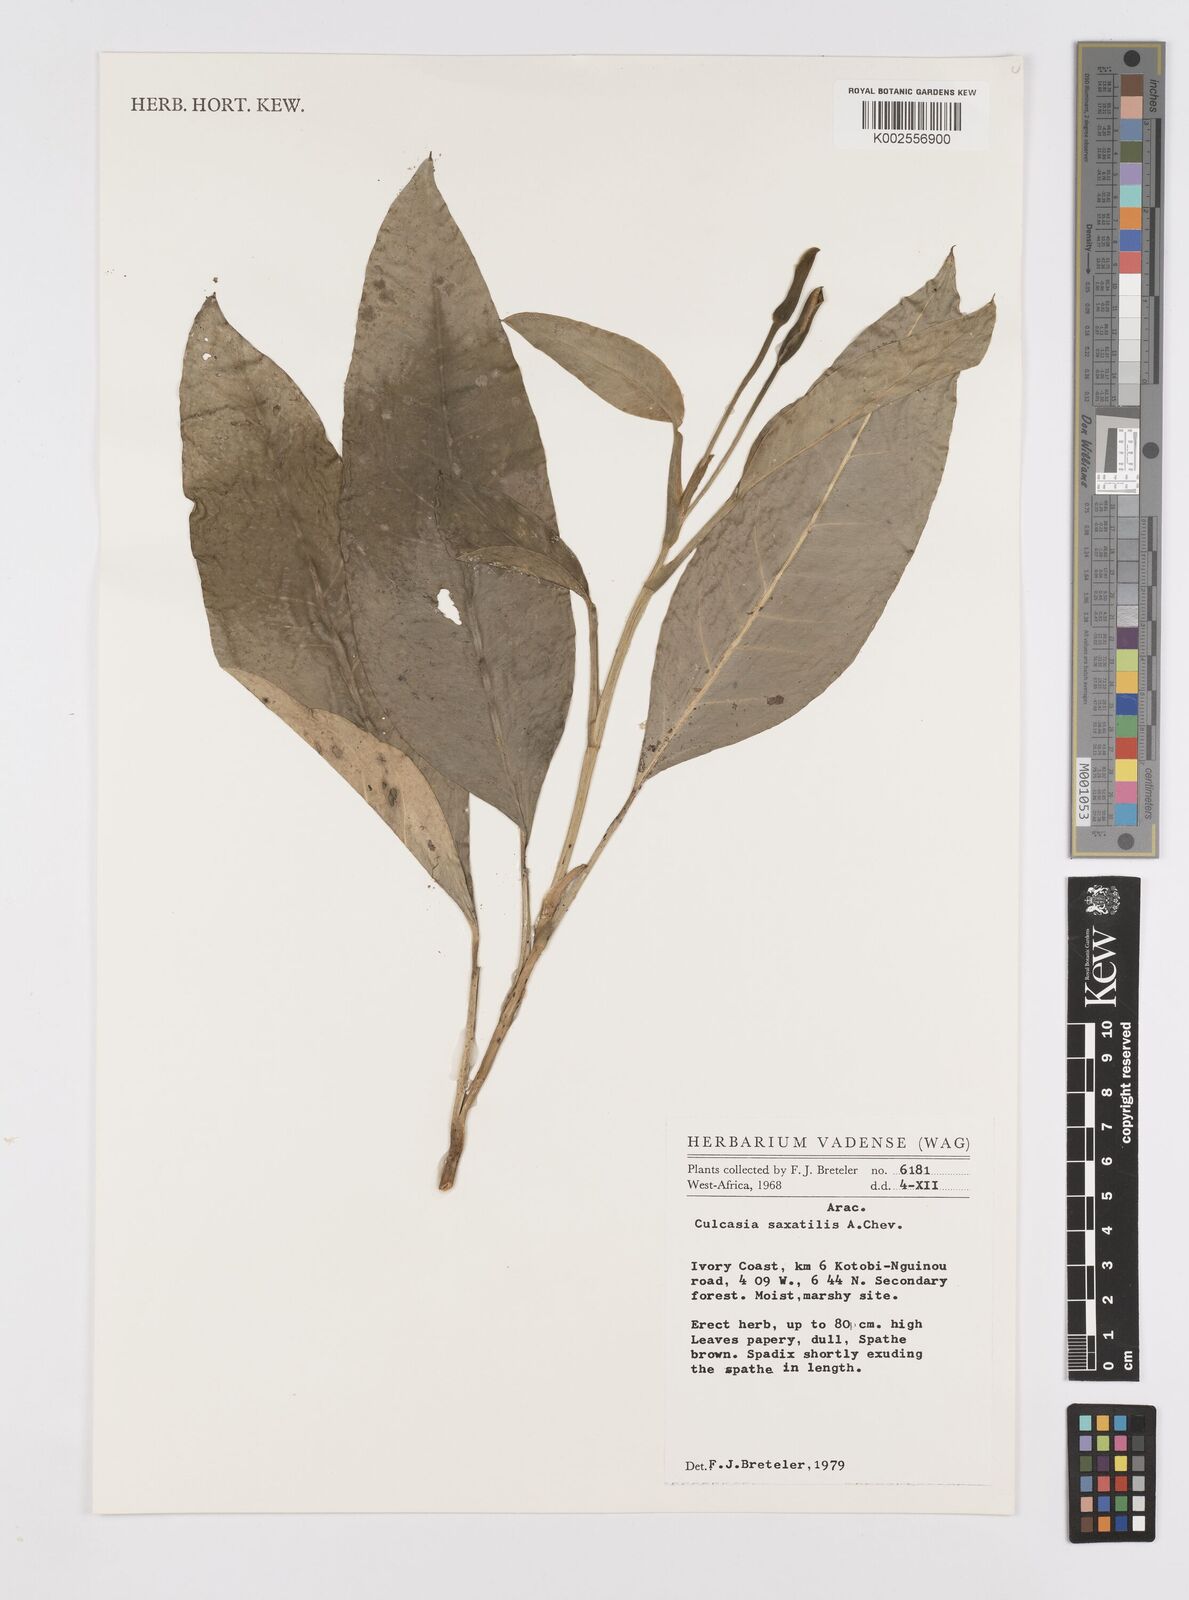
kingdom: Plantae
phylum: Tracheophyta
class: Liliopsida
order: Alismatales
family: Araceae
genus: Culcasia
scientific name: Culcasia scandens
